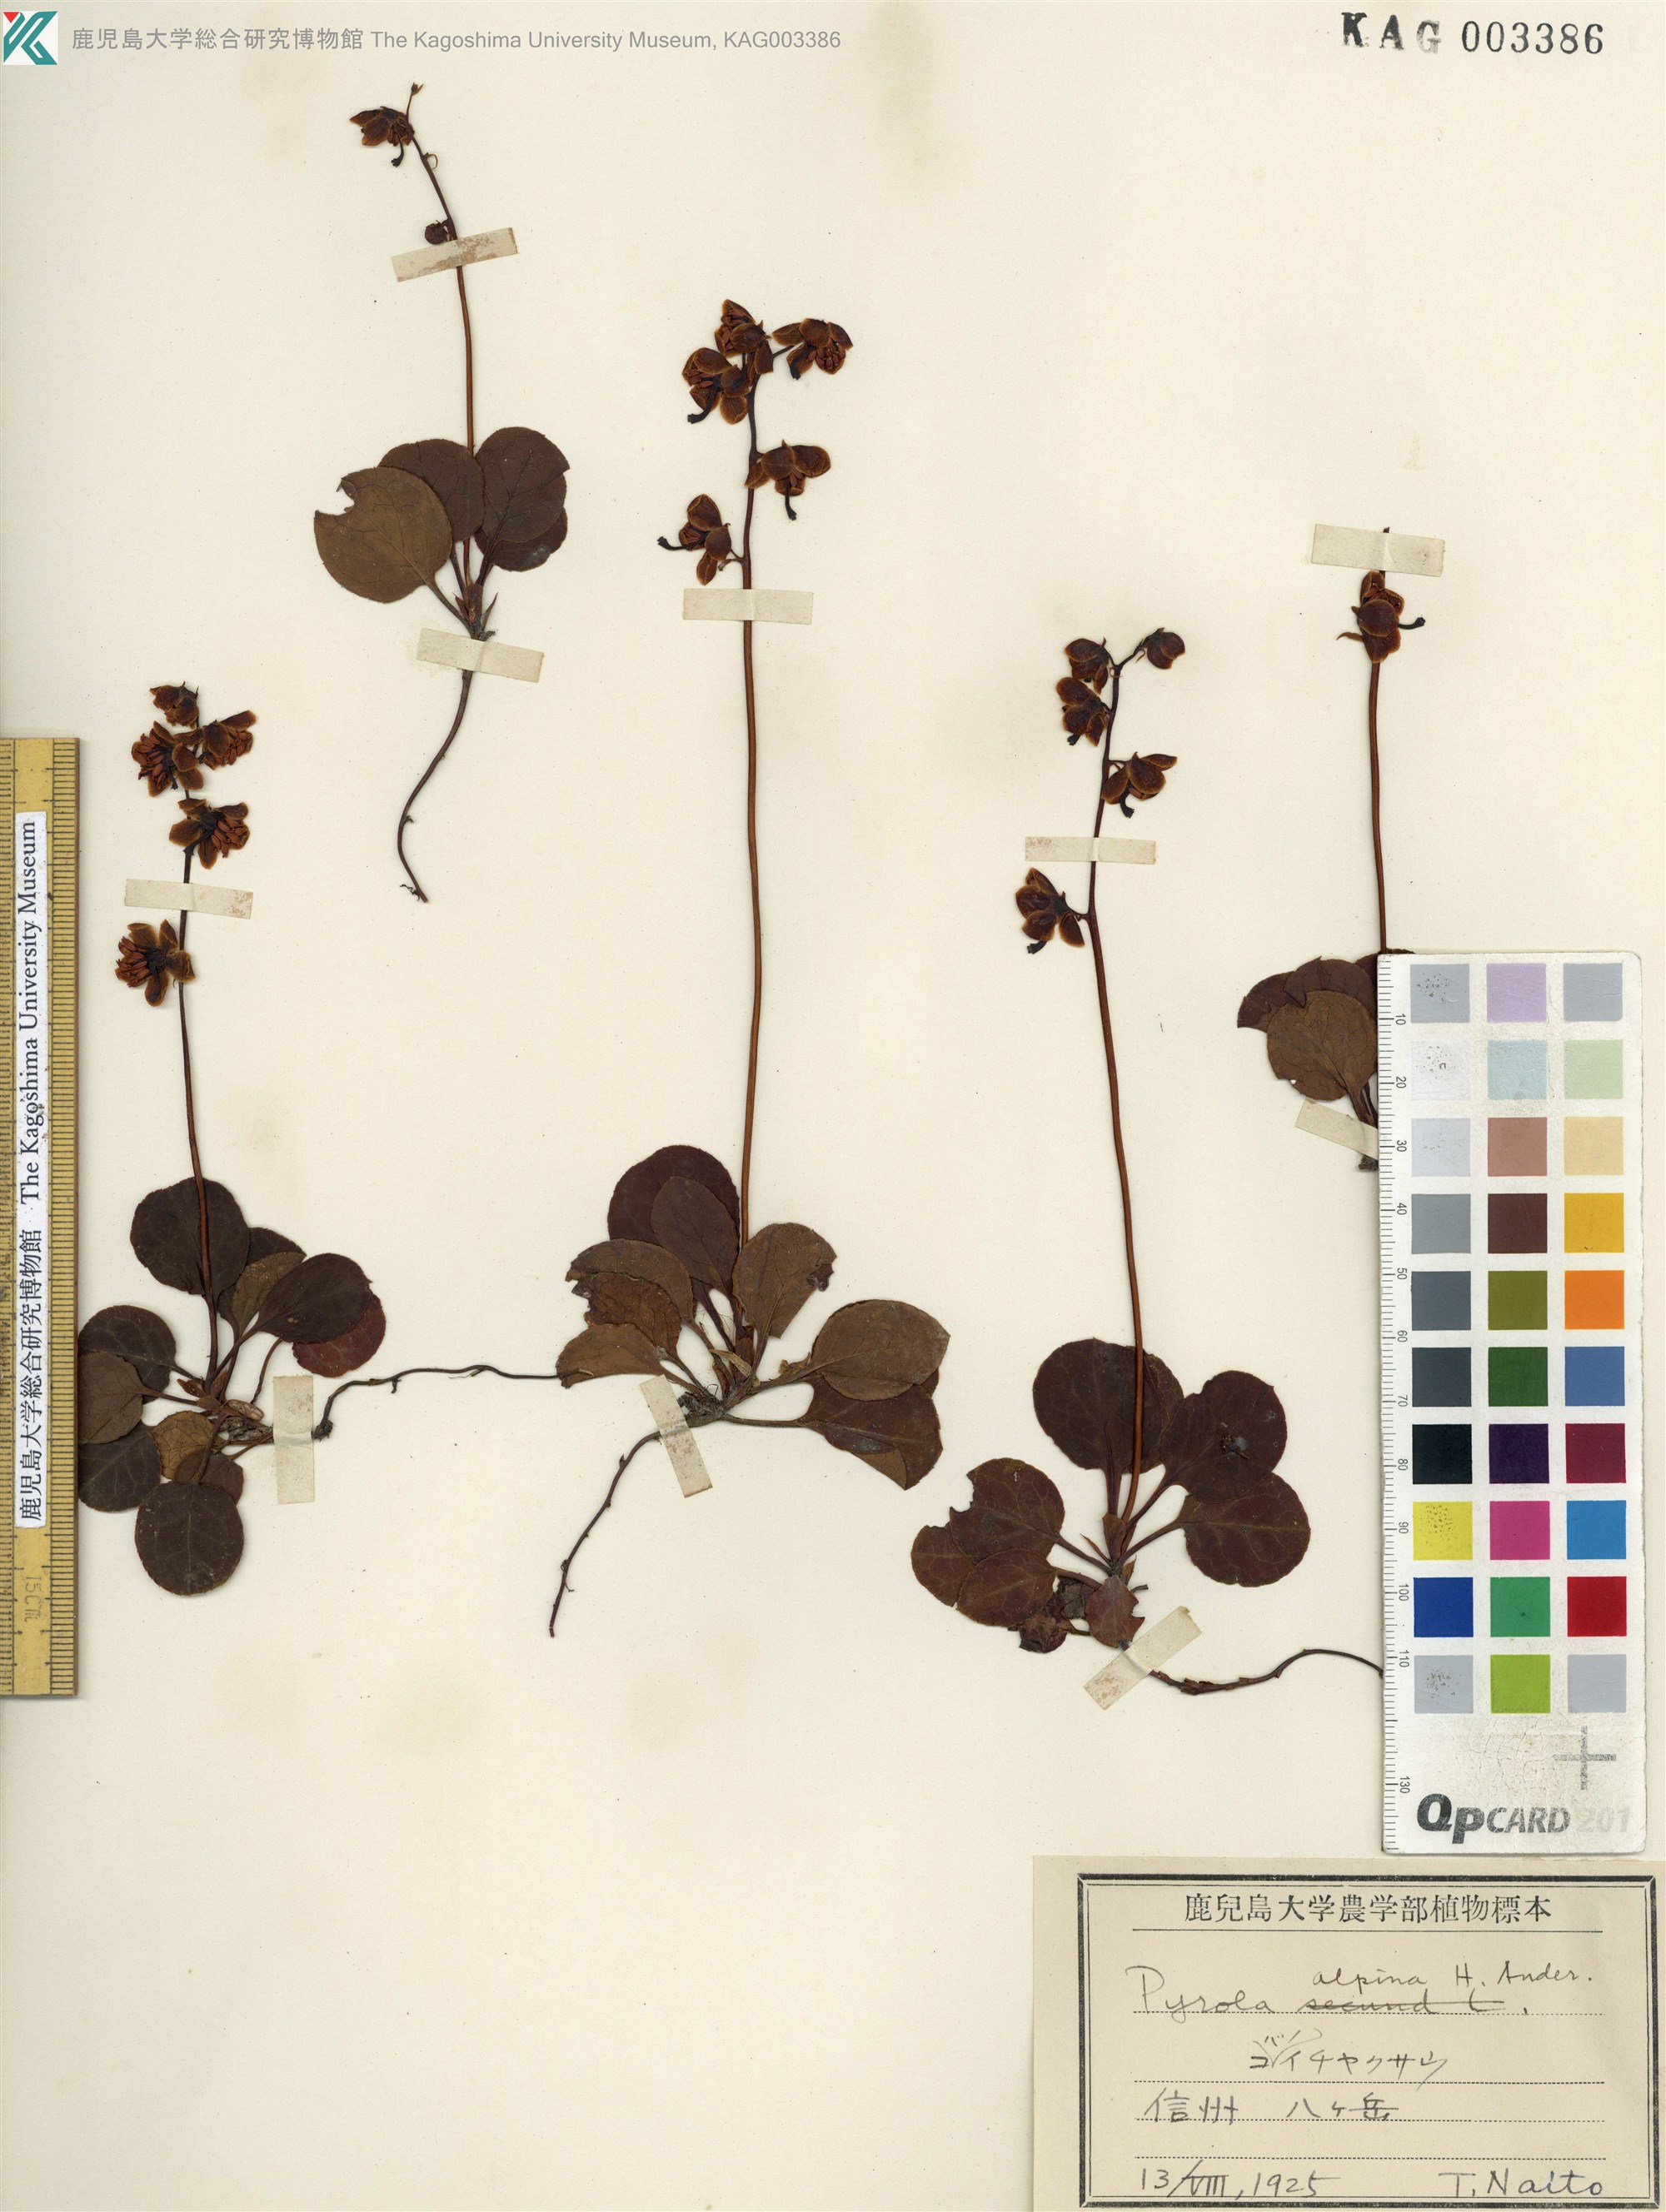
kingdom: Plantae
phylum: Tracheophyta
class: Magnoliopsida
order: Ericales
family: Ericaceae
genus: Pyrola
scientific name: Pyrola alpina
